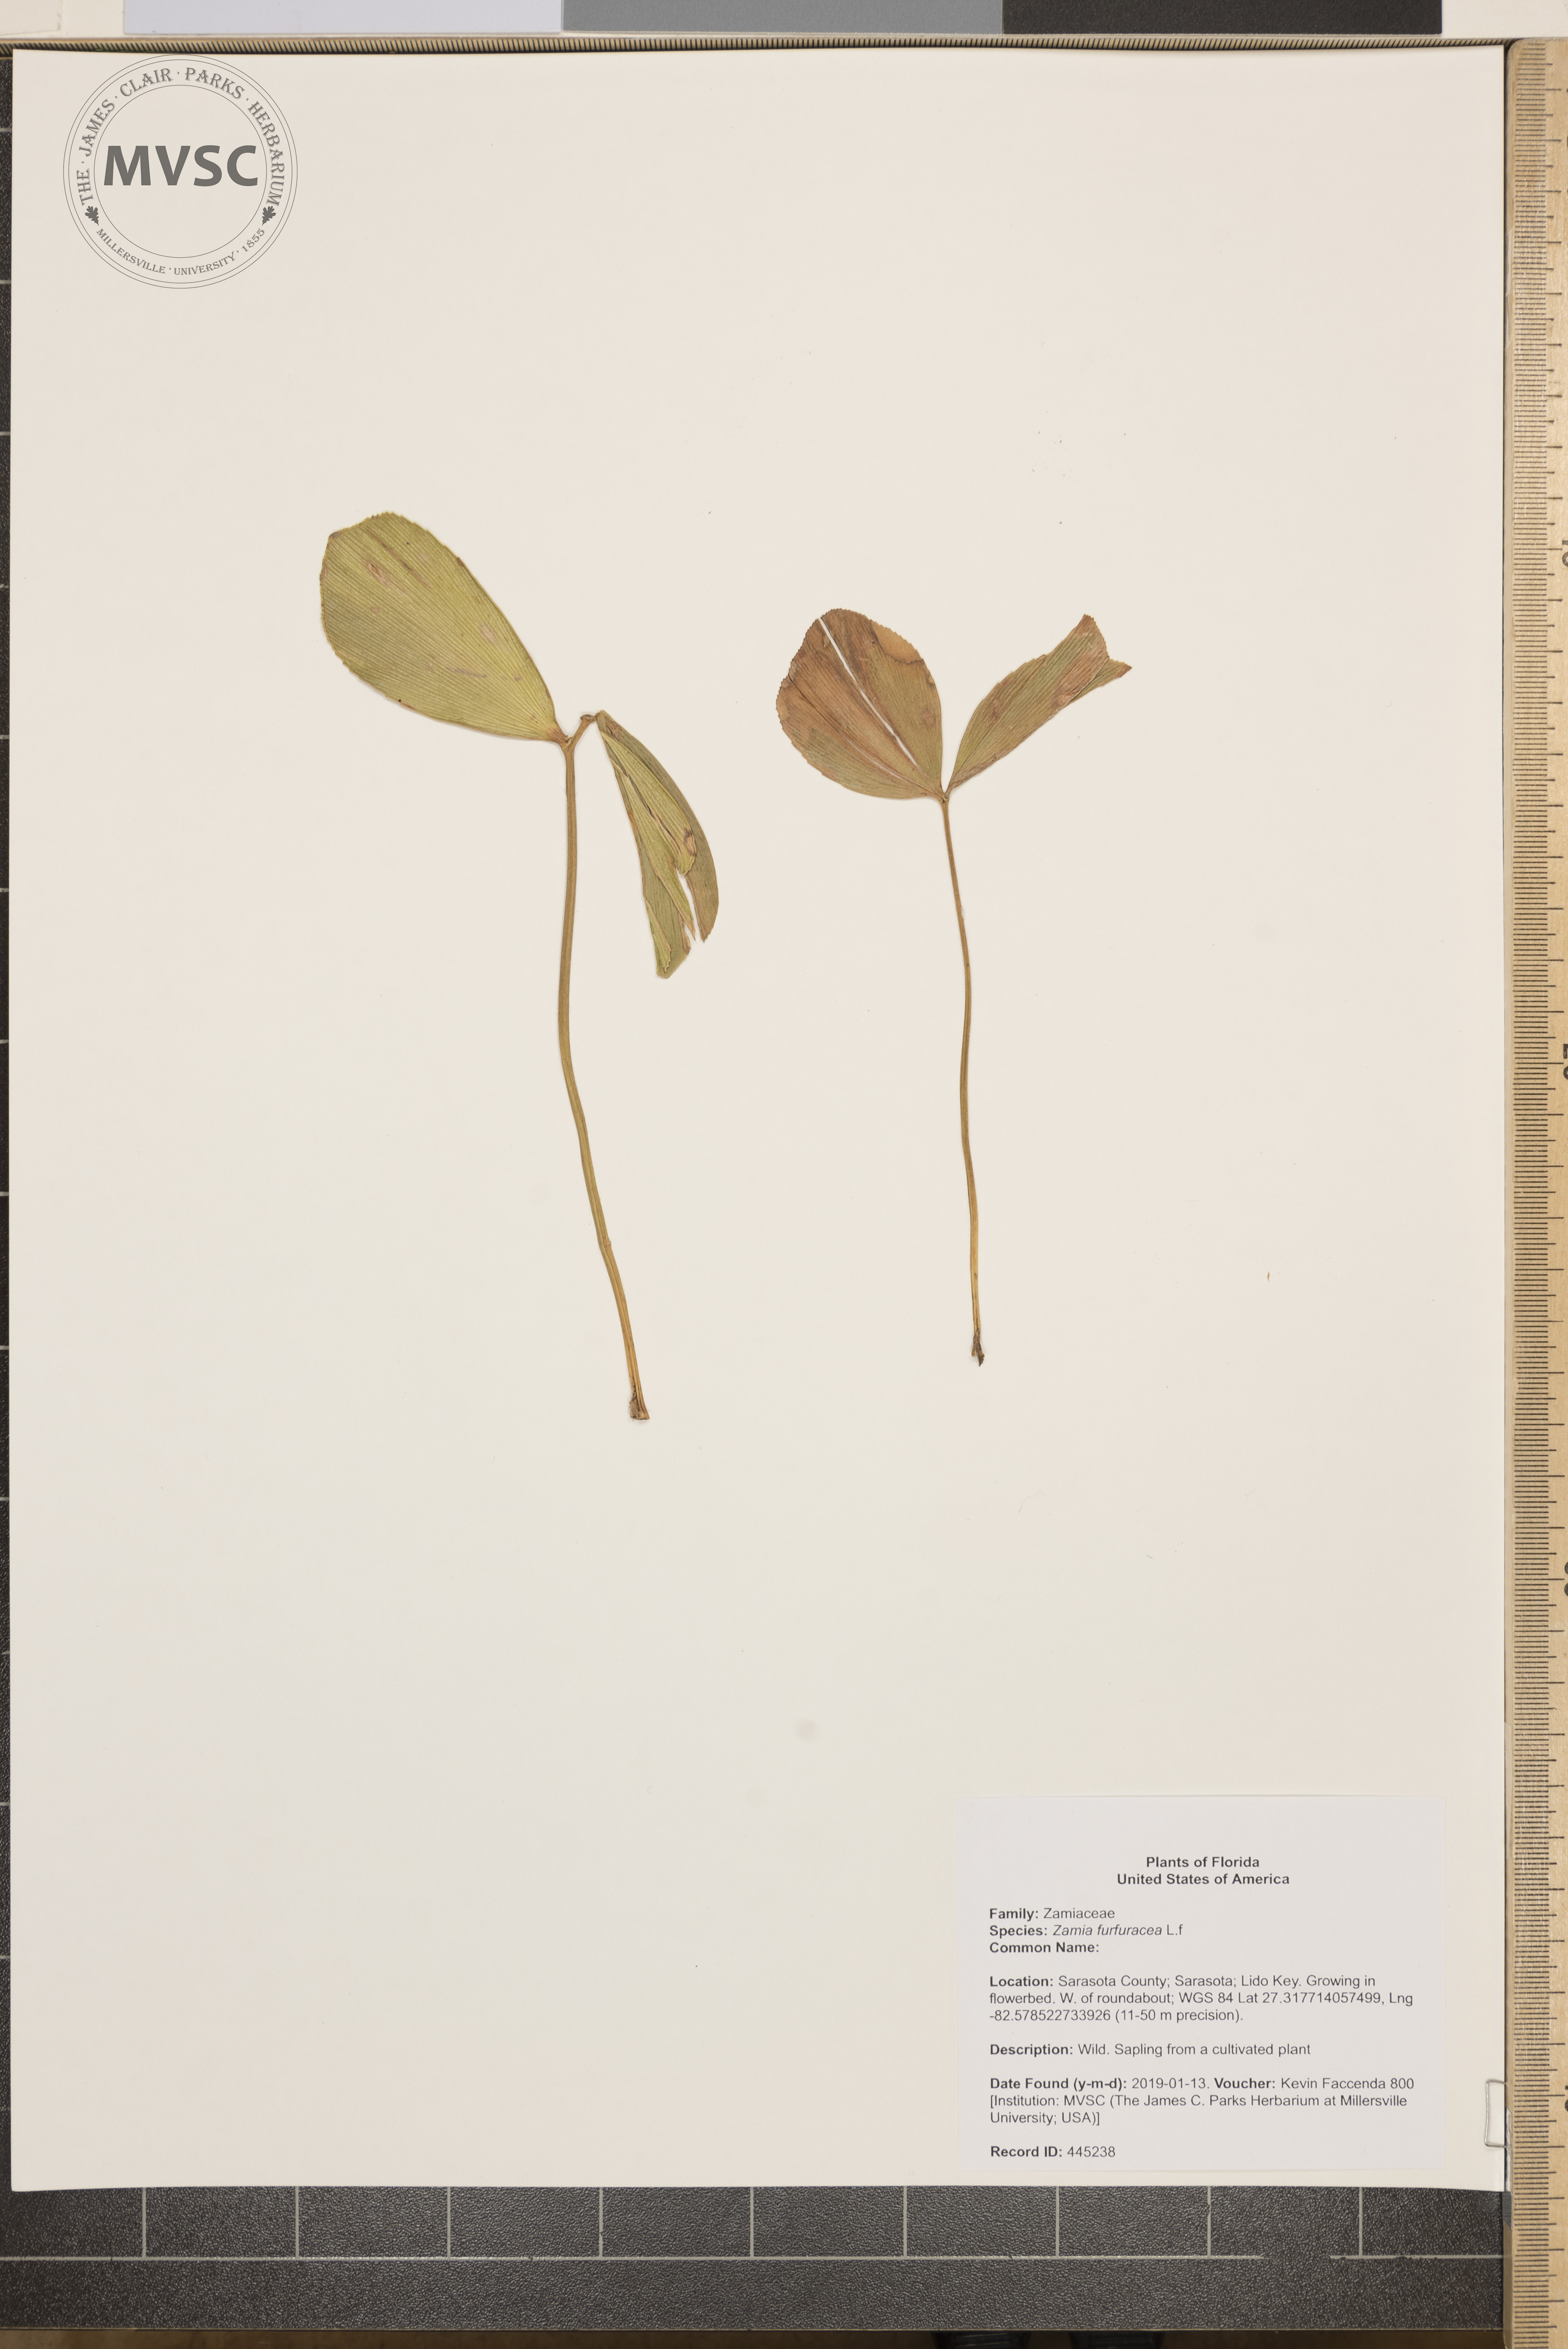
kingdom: Plantae
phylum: Tracheophyta
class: Cycadopsida
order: Cycadales
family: Zamiaceae
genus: Zamia
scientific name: Zamia furfuracea
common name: Cardboard palm
